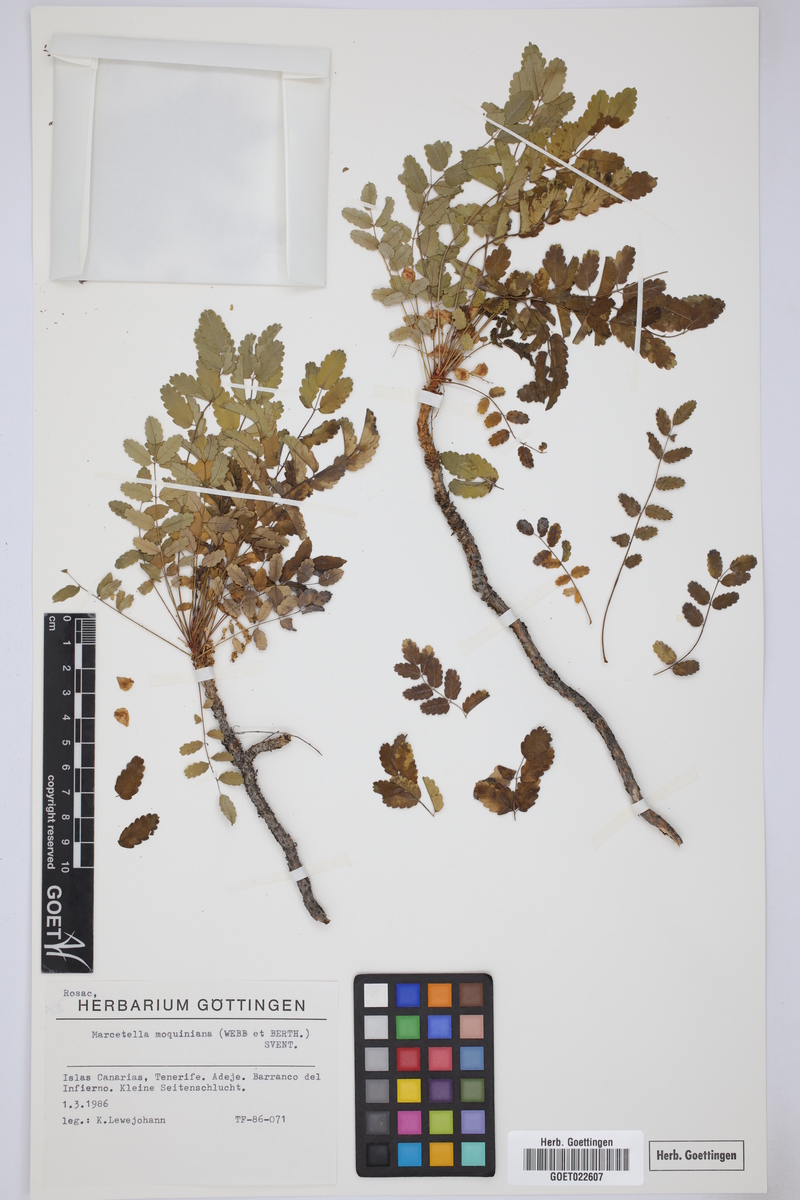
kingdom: Plantae
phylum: Tracheophyta
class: Magnoliopsida
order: Rosales
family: Rosaceae
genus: Marcetella
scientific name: Marcetella moquiniana
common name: Burnet tree
